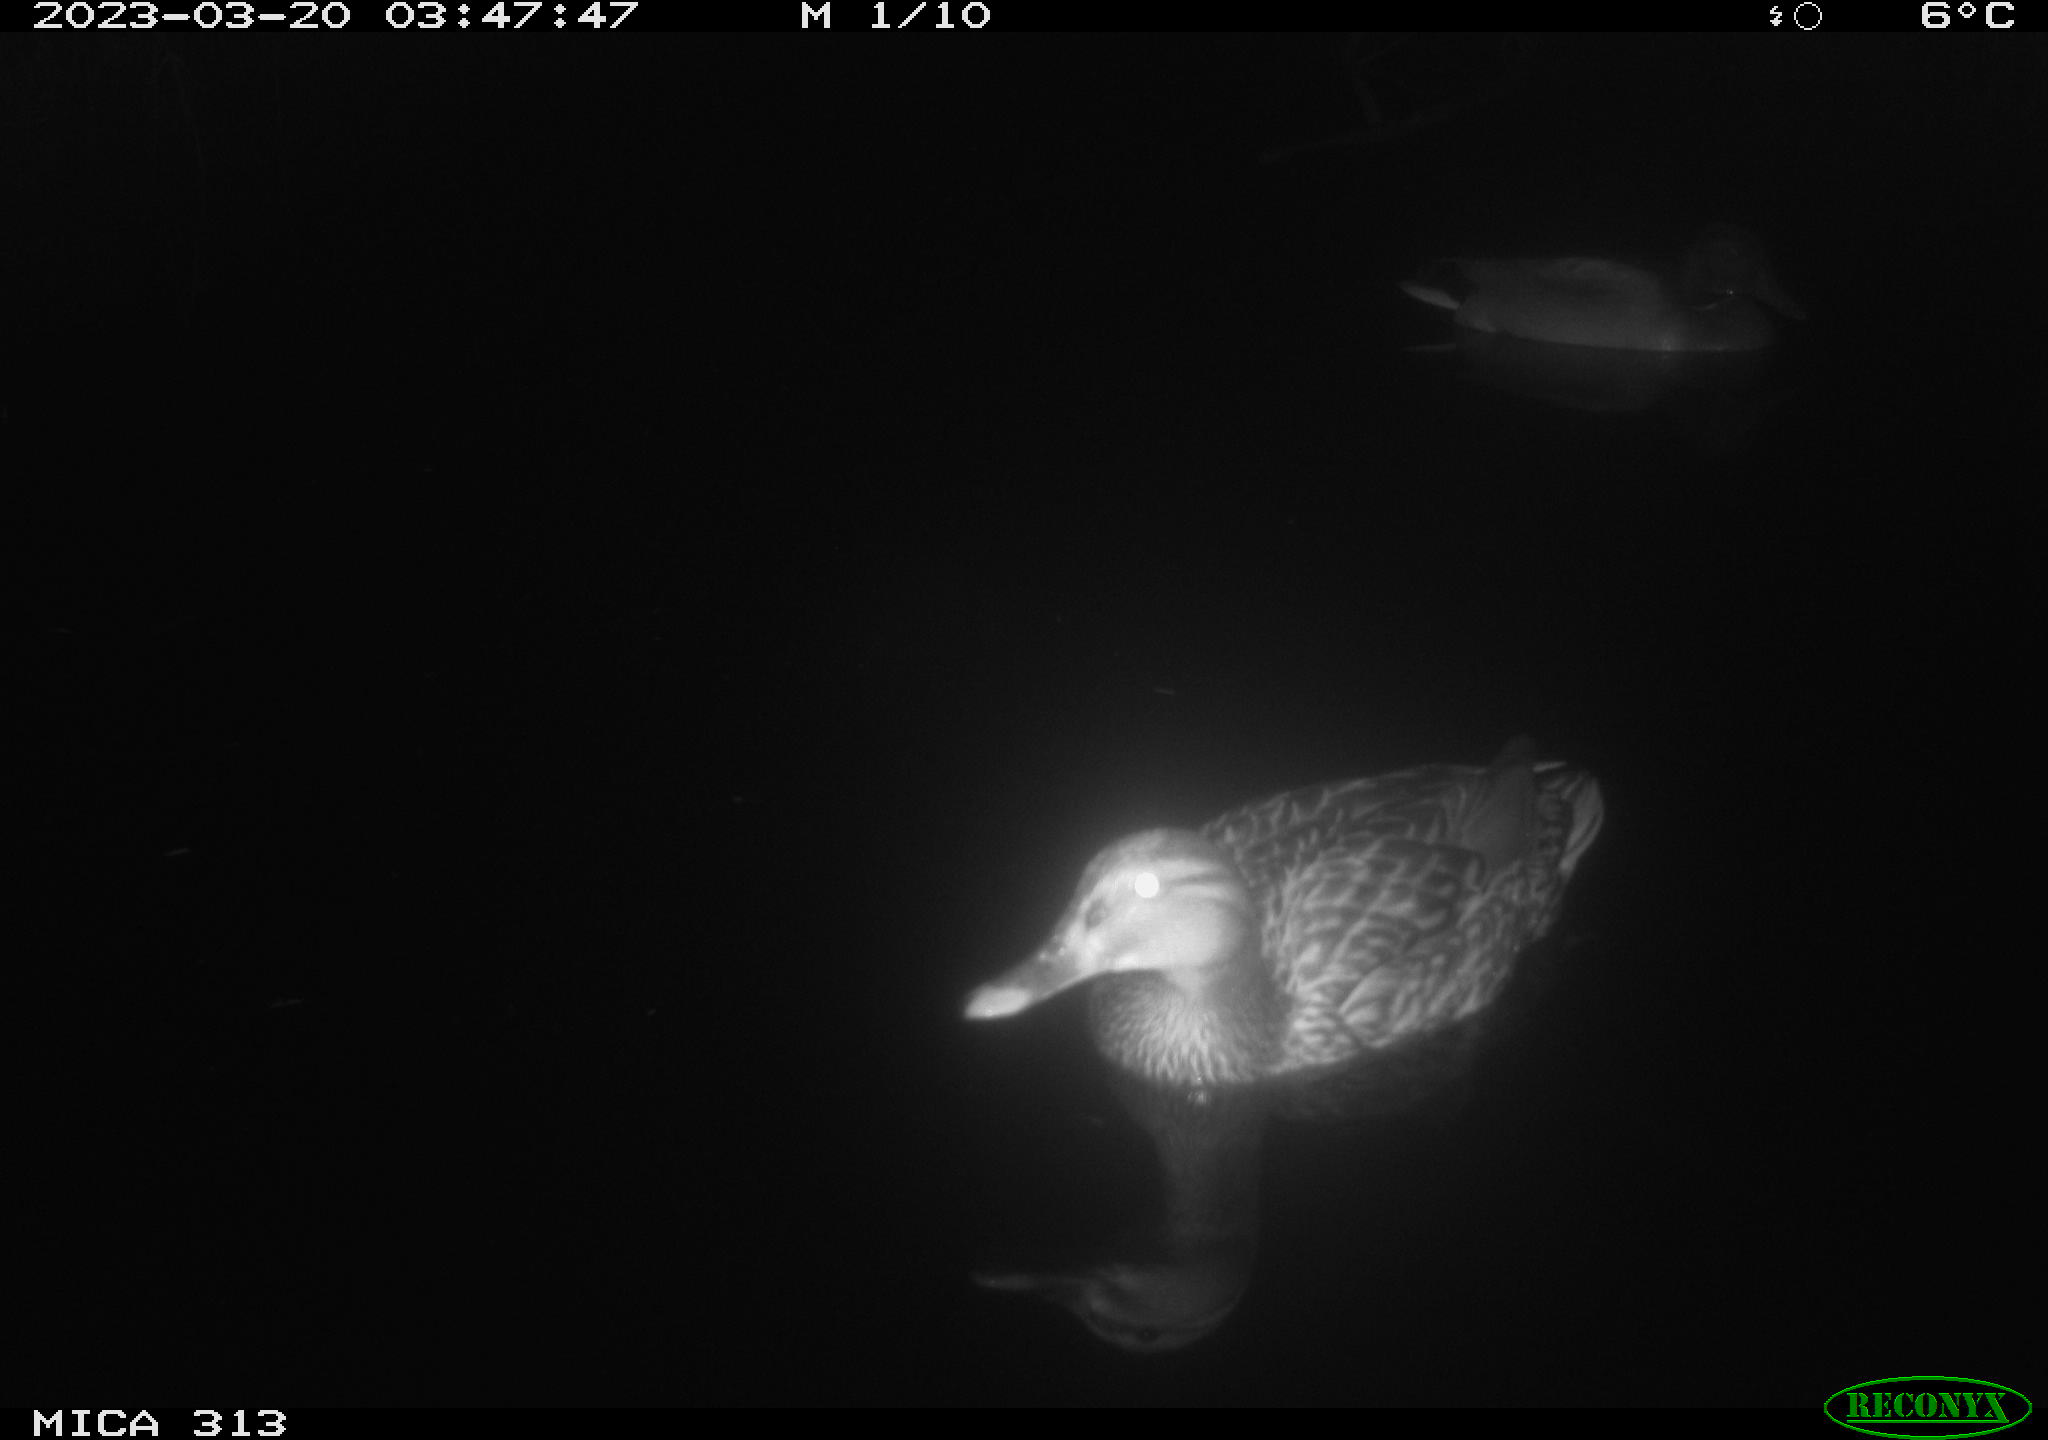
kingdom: Animalia
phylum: Chordata
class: Aves
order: Anseriformes
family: Anatidae
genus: Anas
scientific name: Anas
